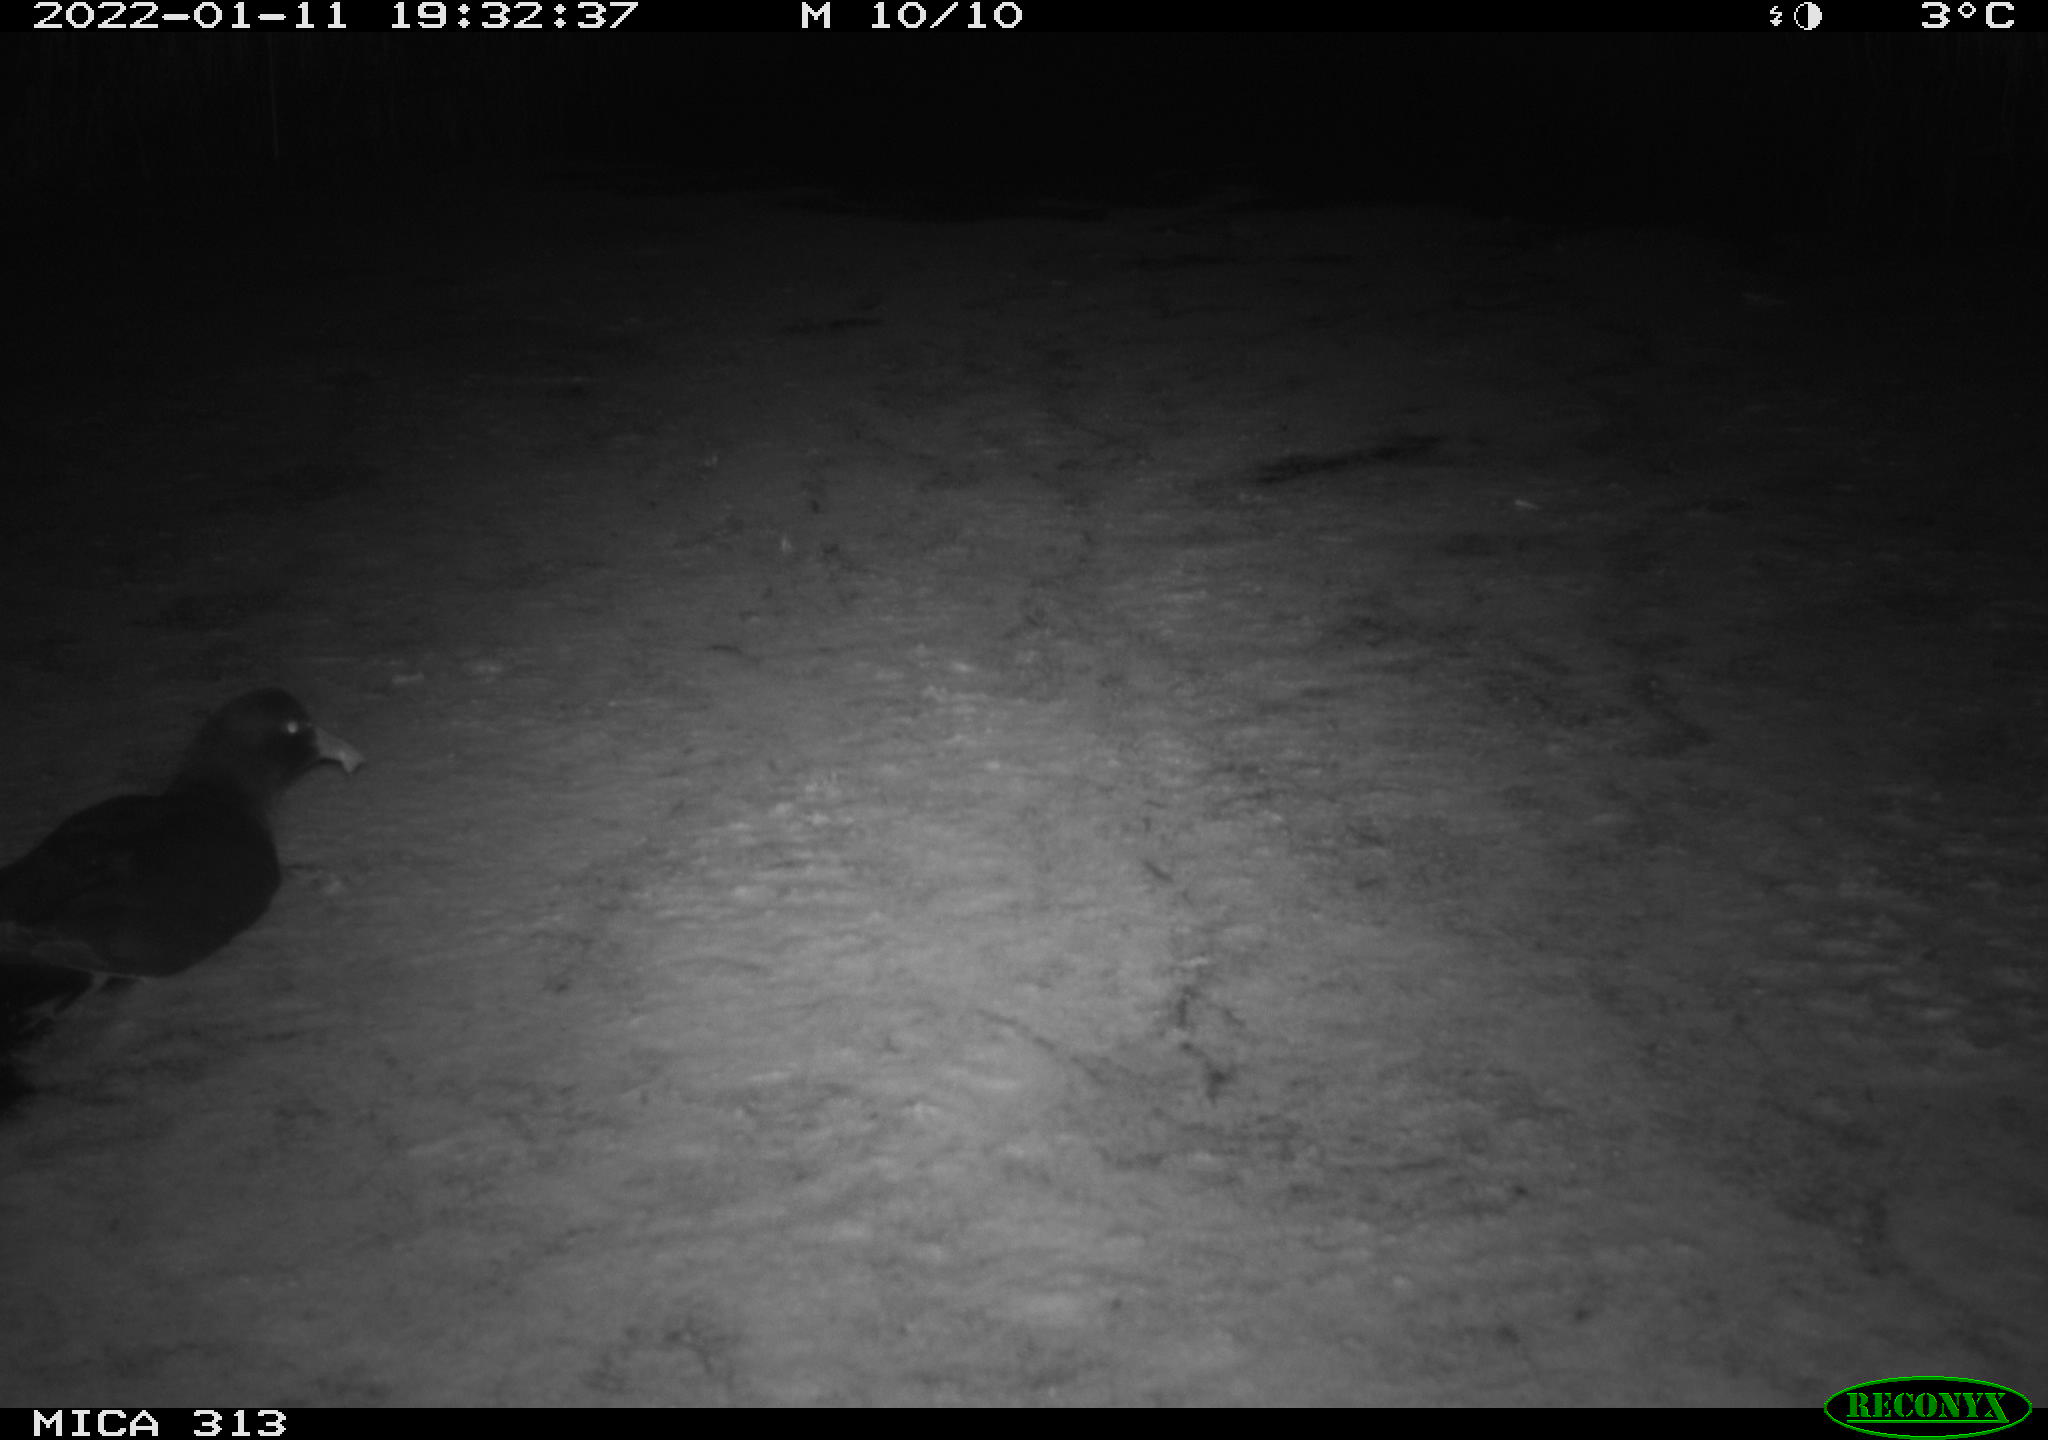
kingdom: Animalia
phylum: Chordata
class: Aves
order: Gruiformes
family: Rallidae
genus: Gallinula
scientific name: Gallinula chloropus
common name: Common moorhen
